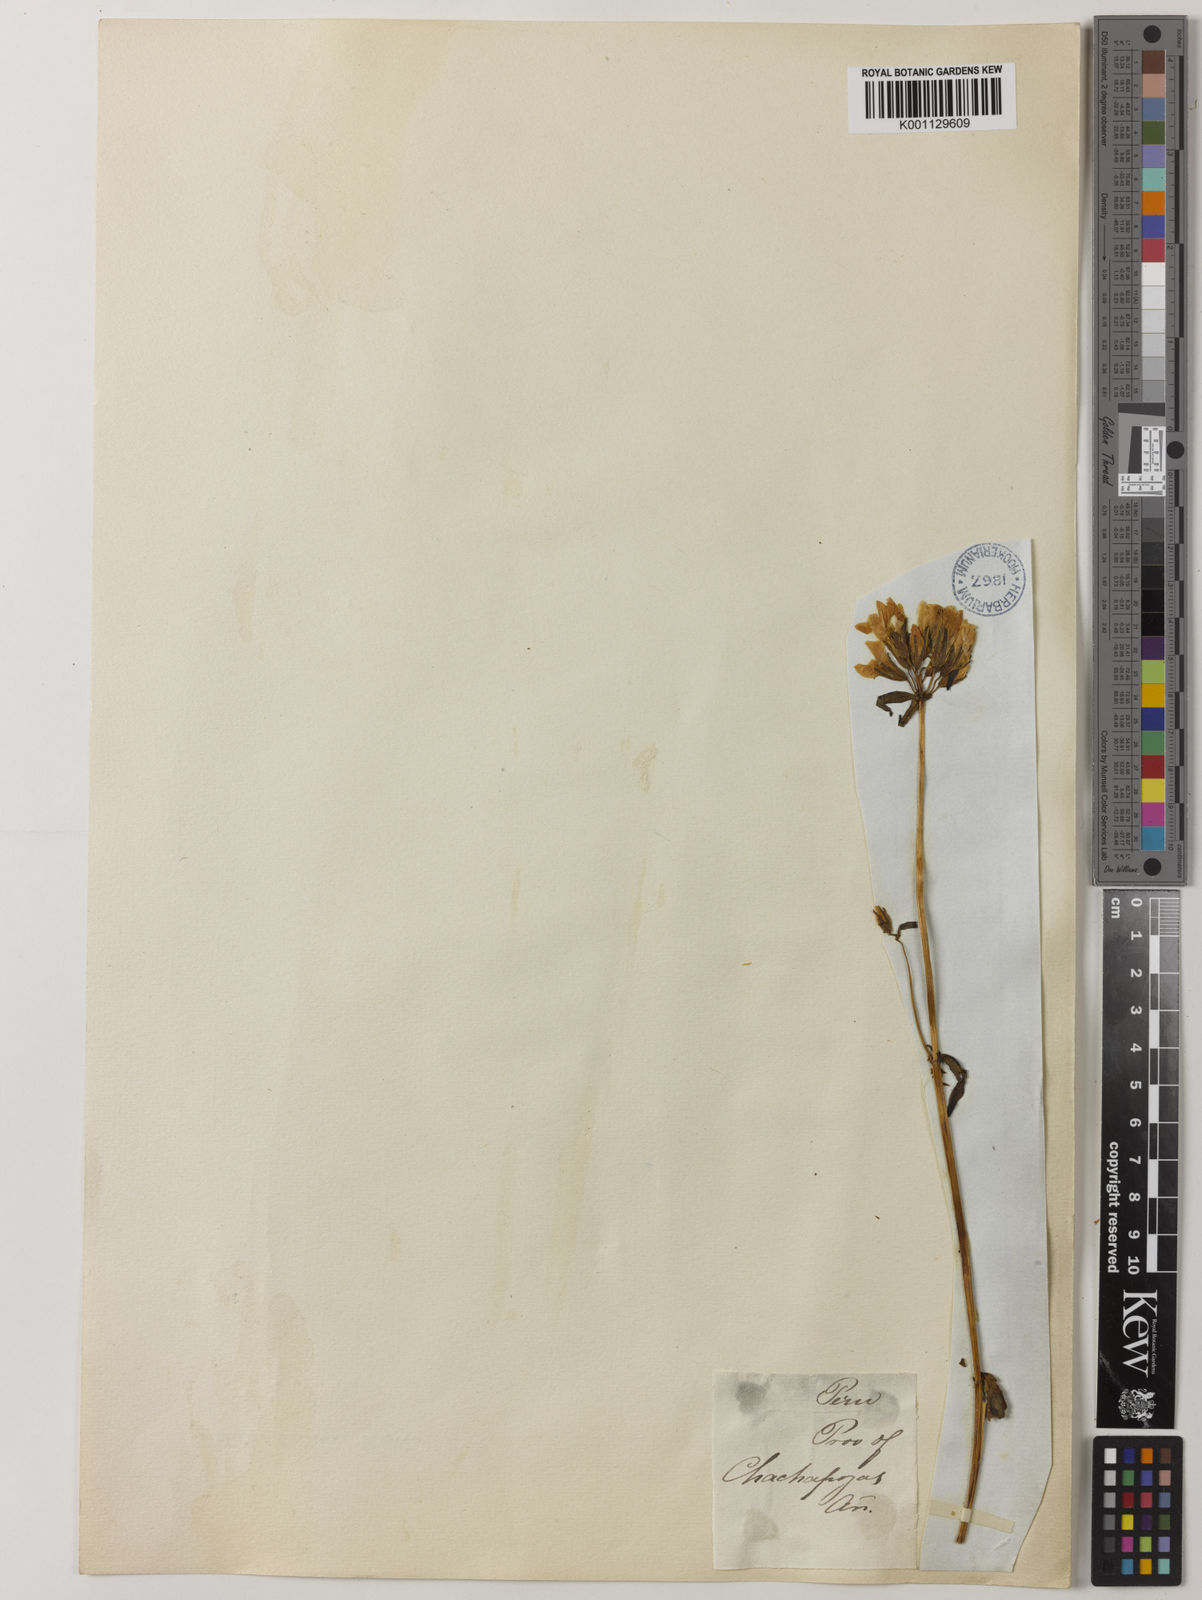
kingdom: Plantae
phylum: Tracheophyta
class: Magnoliopsida
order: Gentianales
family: Gentianaceae
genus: Gentianella
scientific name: Gentianella liniflora
